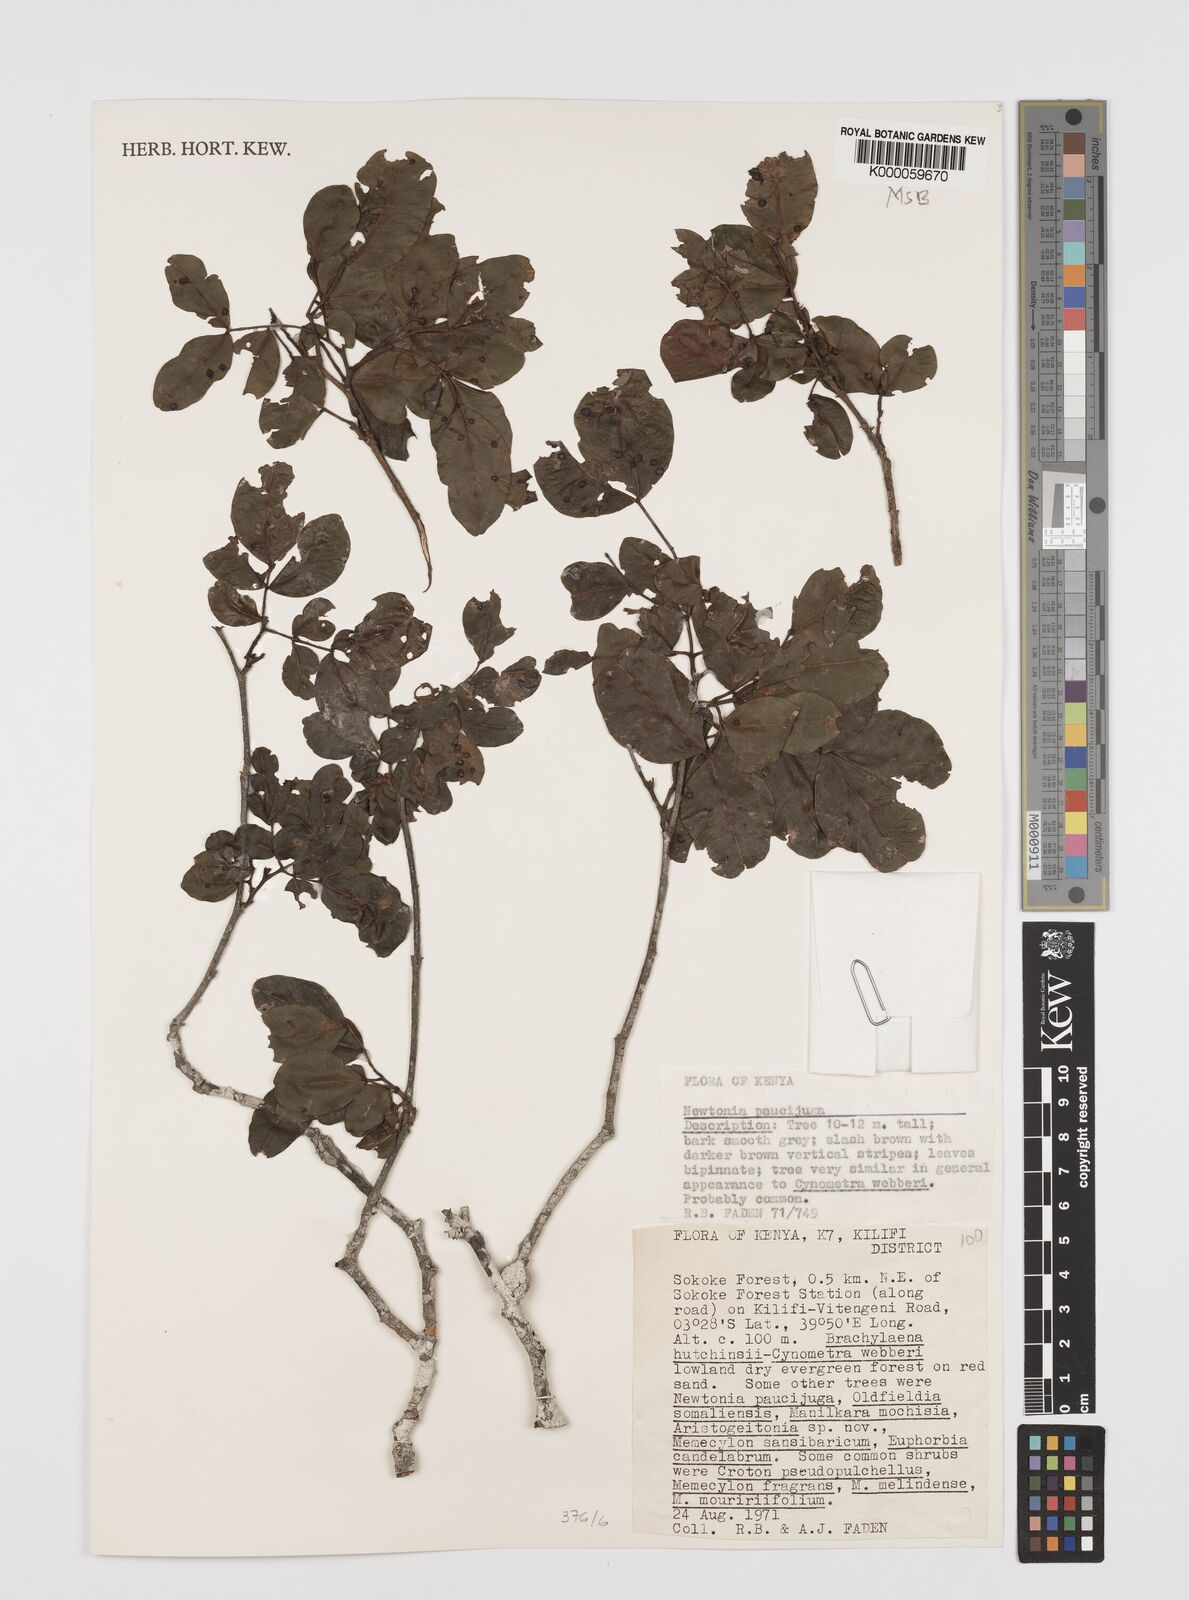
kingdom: Plantae
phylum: Tracheophyta
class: Magnoliopsida
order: Fabales
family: Fabaceae
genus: Newtonia
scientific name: Newtonia paucijuga
